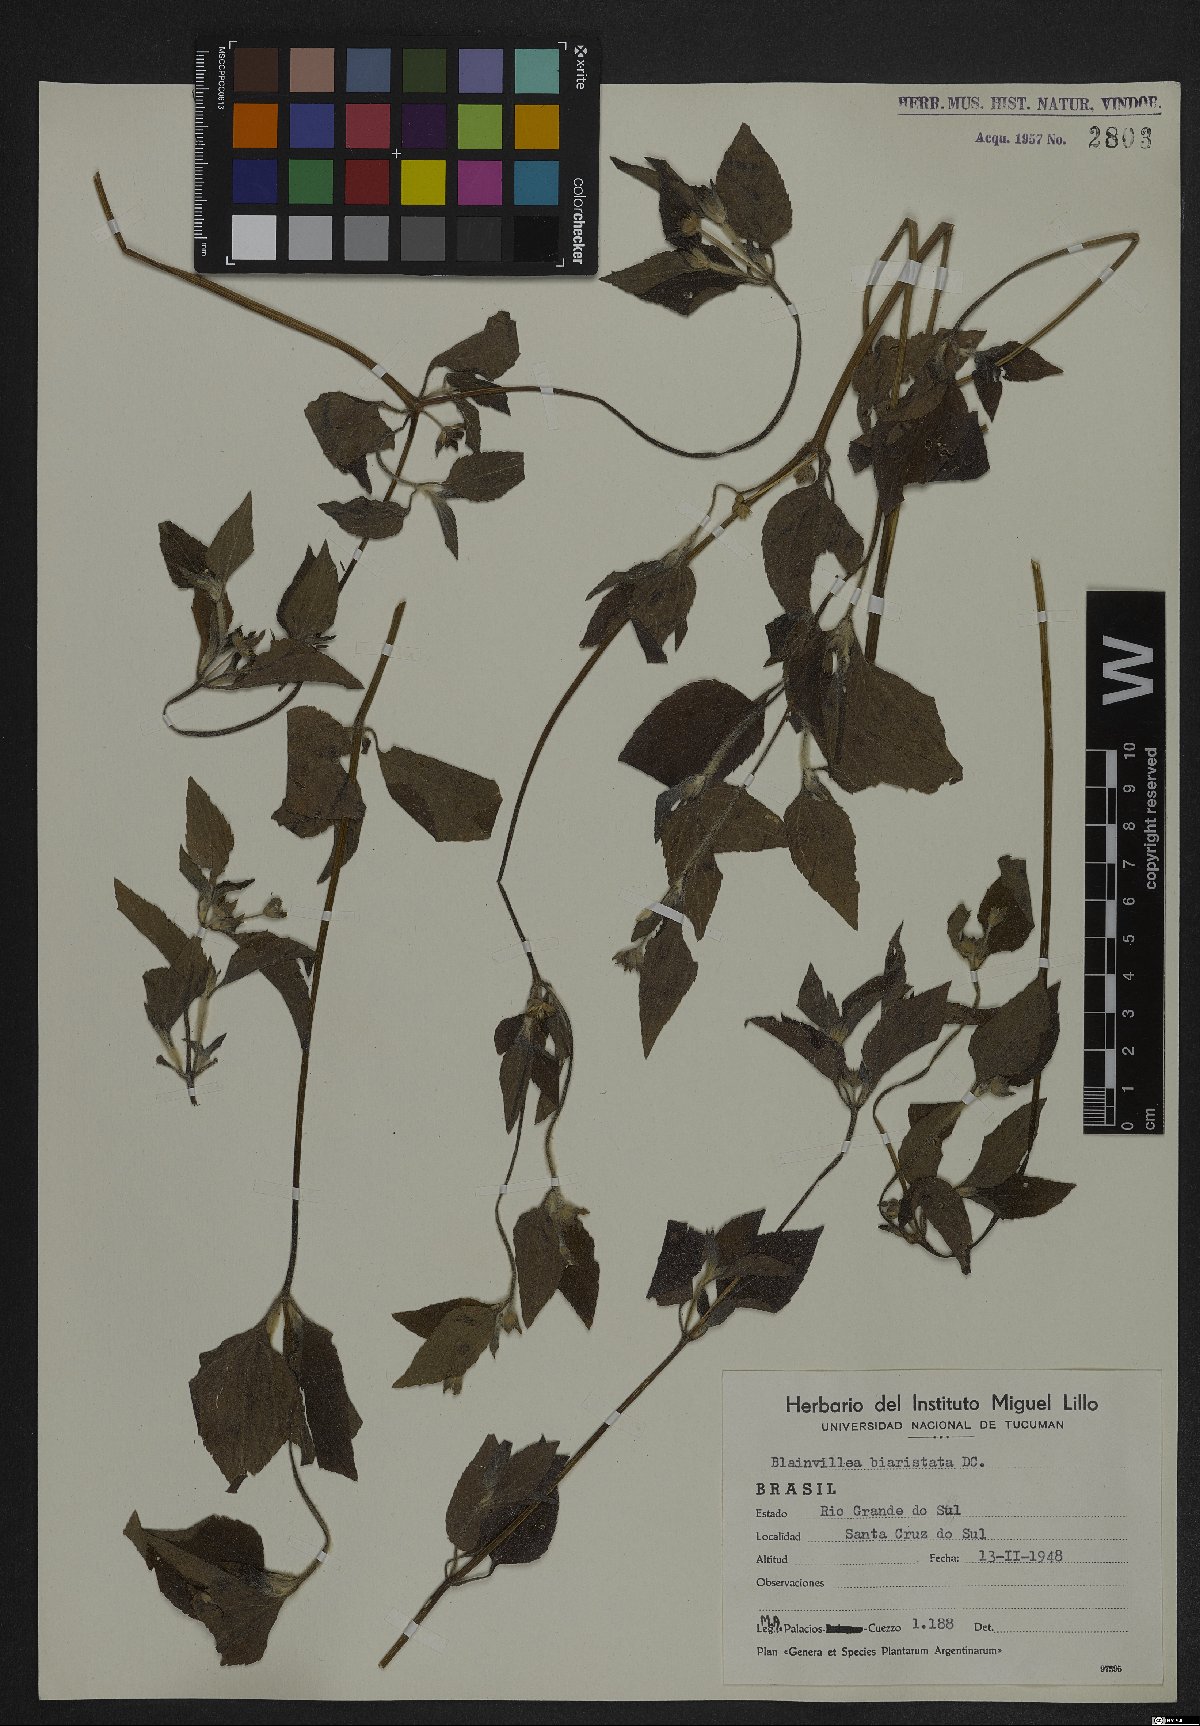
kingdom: Plantae
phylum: Tracheophyta
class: Magnoliopsida
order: Asterales
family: Asteraceae
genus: Calyptocarpus
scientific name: Calyptocarpus brasiliensis
